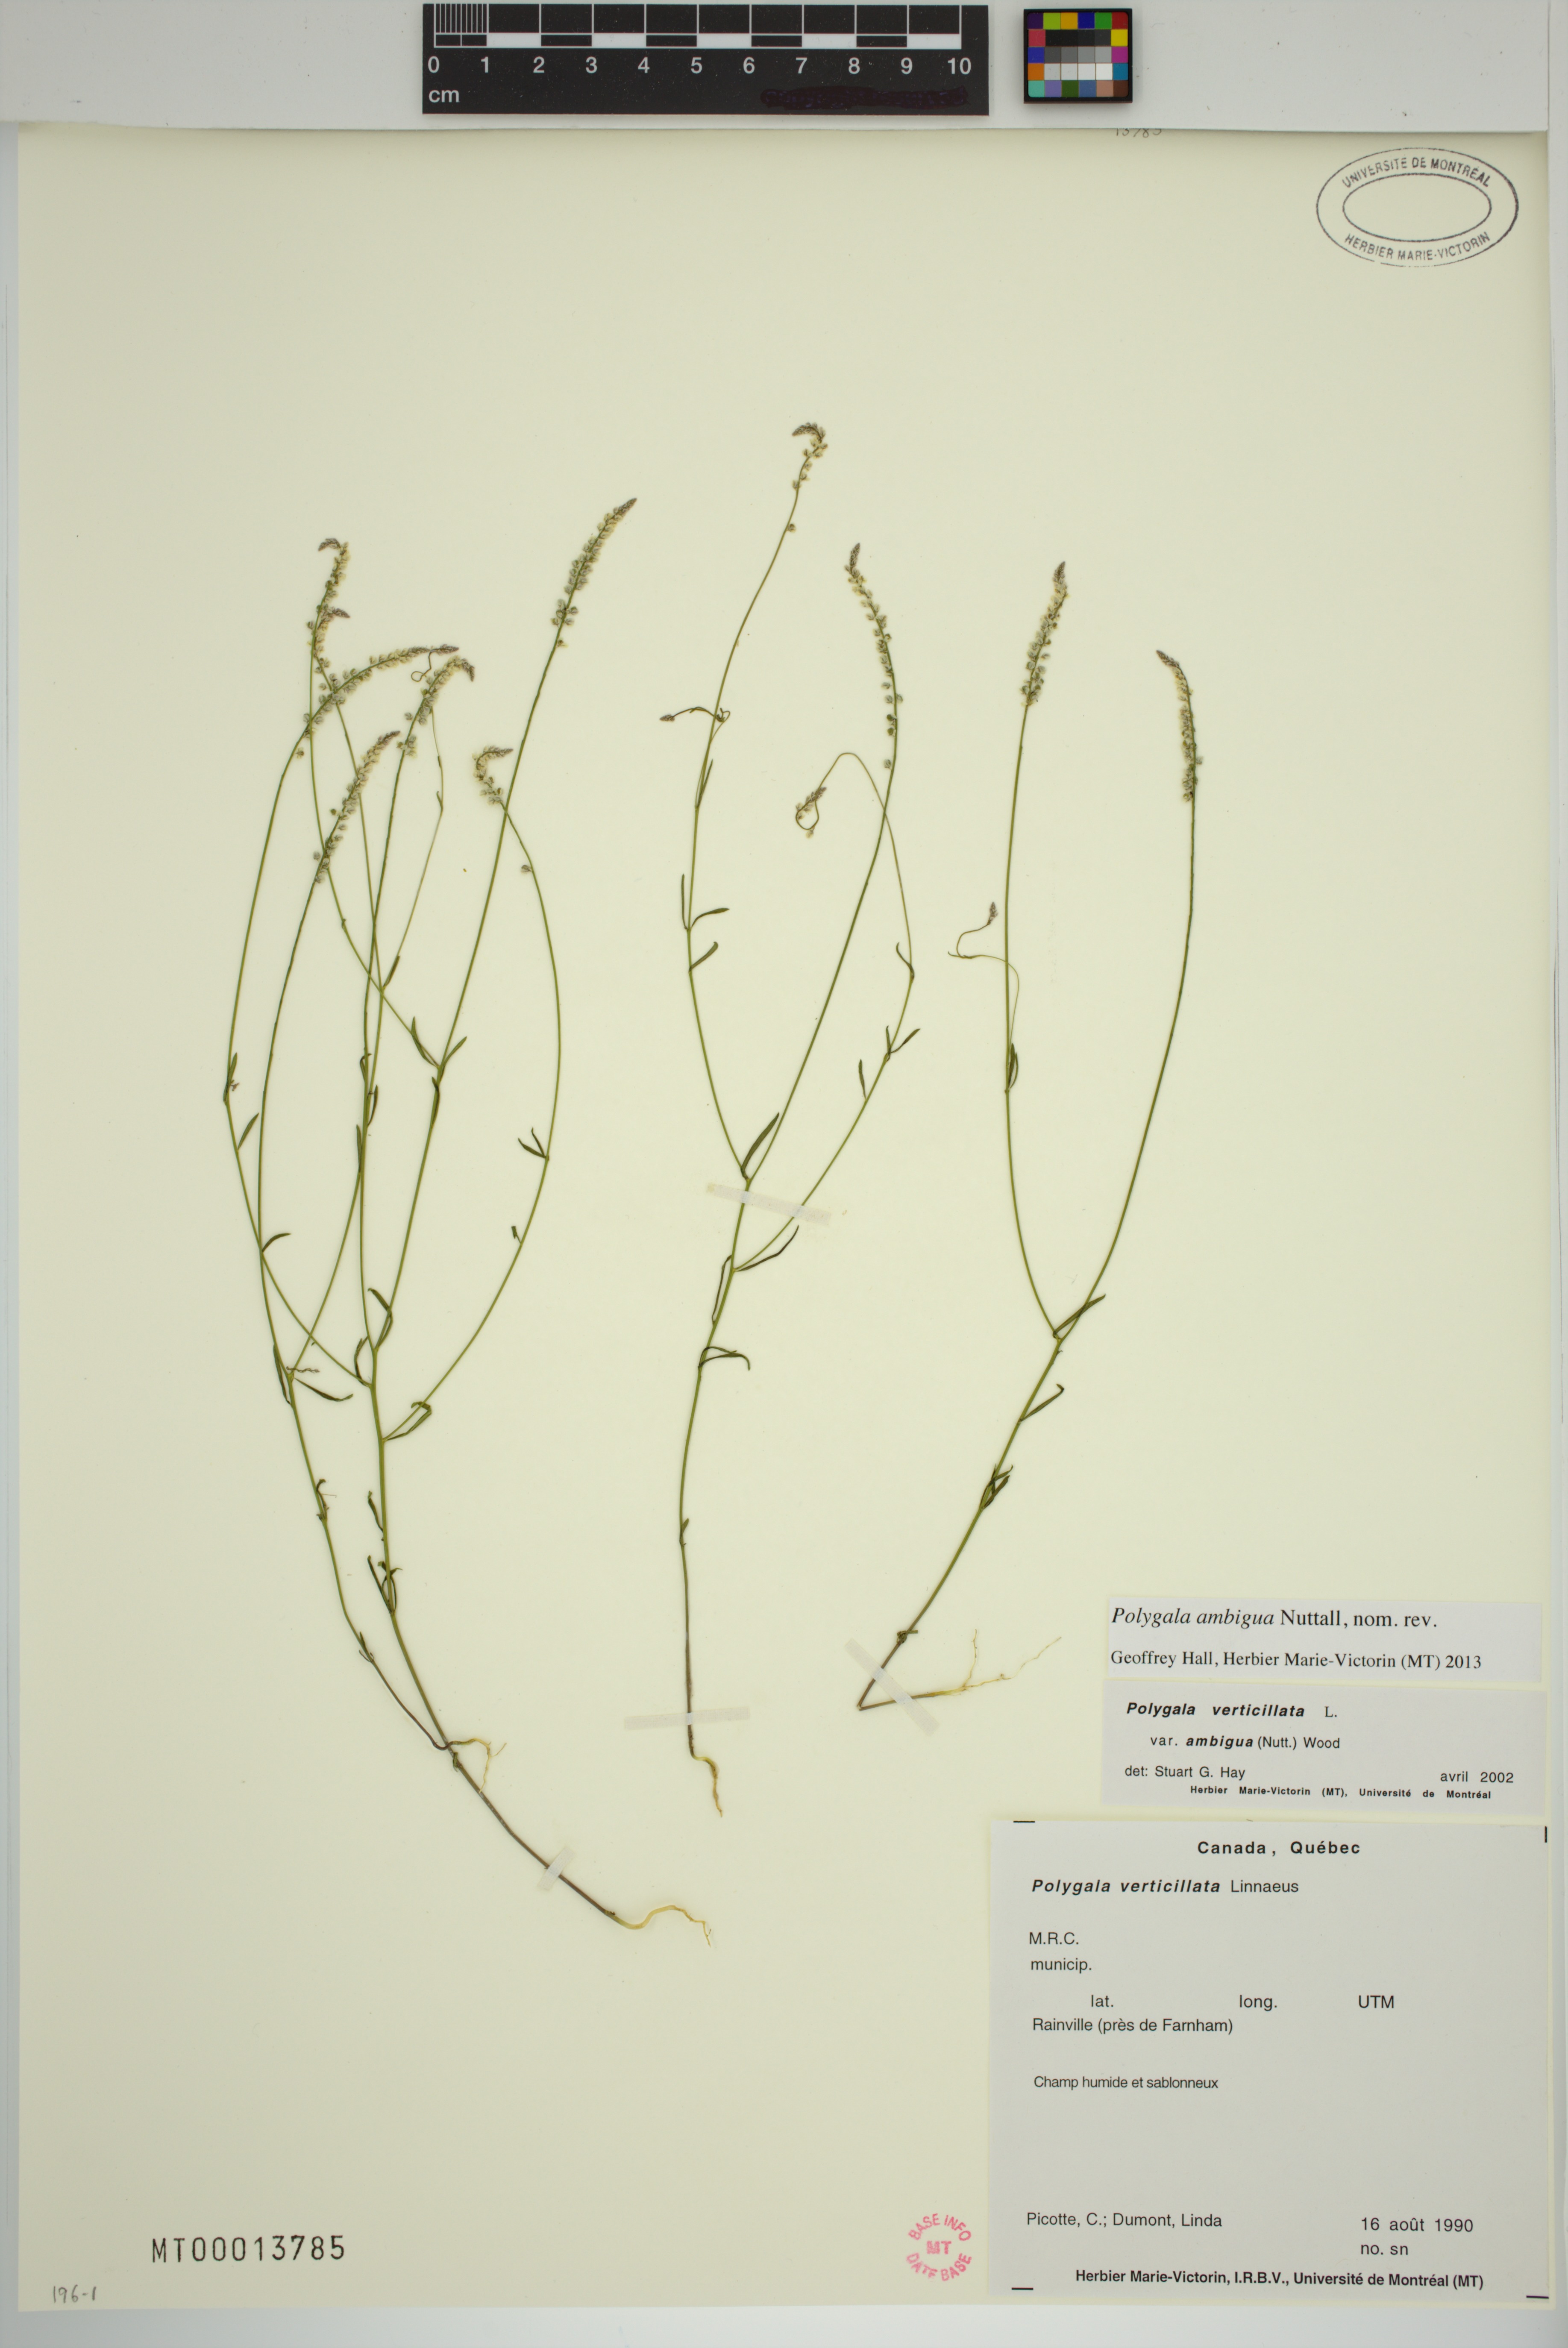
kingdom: Plantae
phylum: Tracheophyta
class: Magnoliopsida
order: Fabales
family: Polygalaceae
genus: Polygala
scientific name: Polygala ambigua
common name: Alternate milkwort
